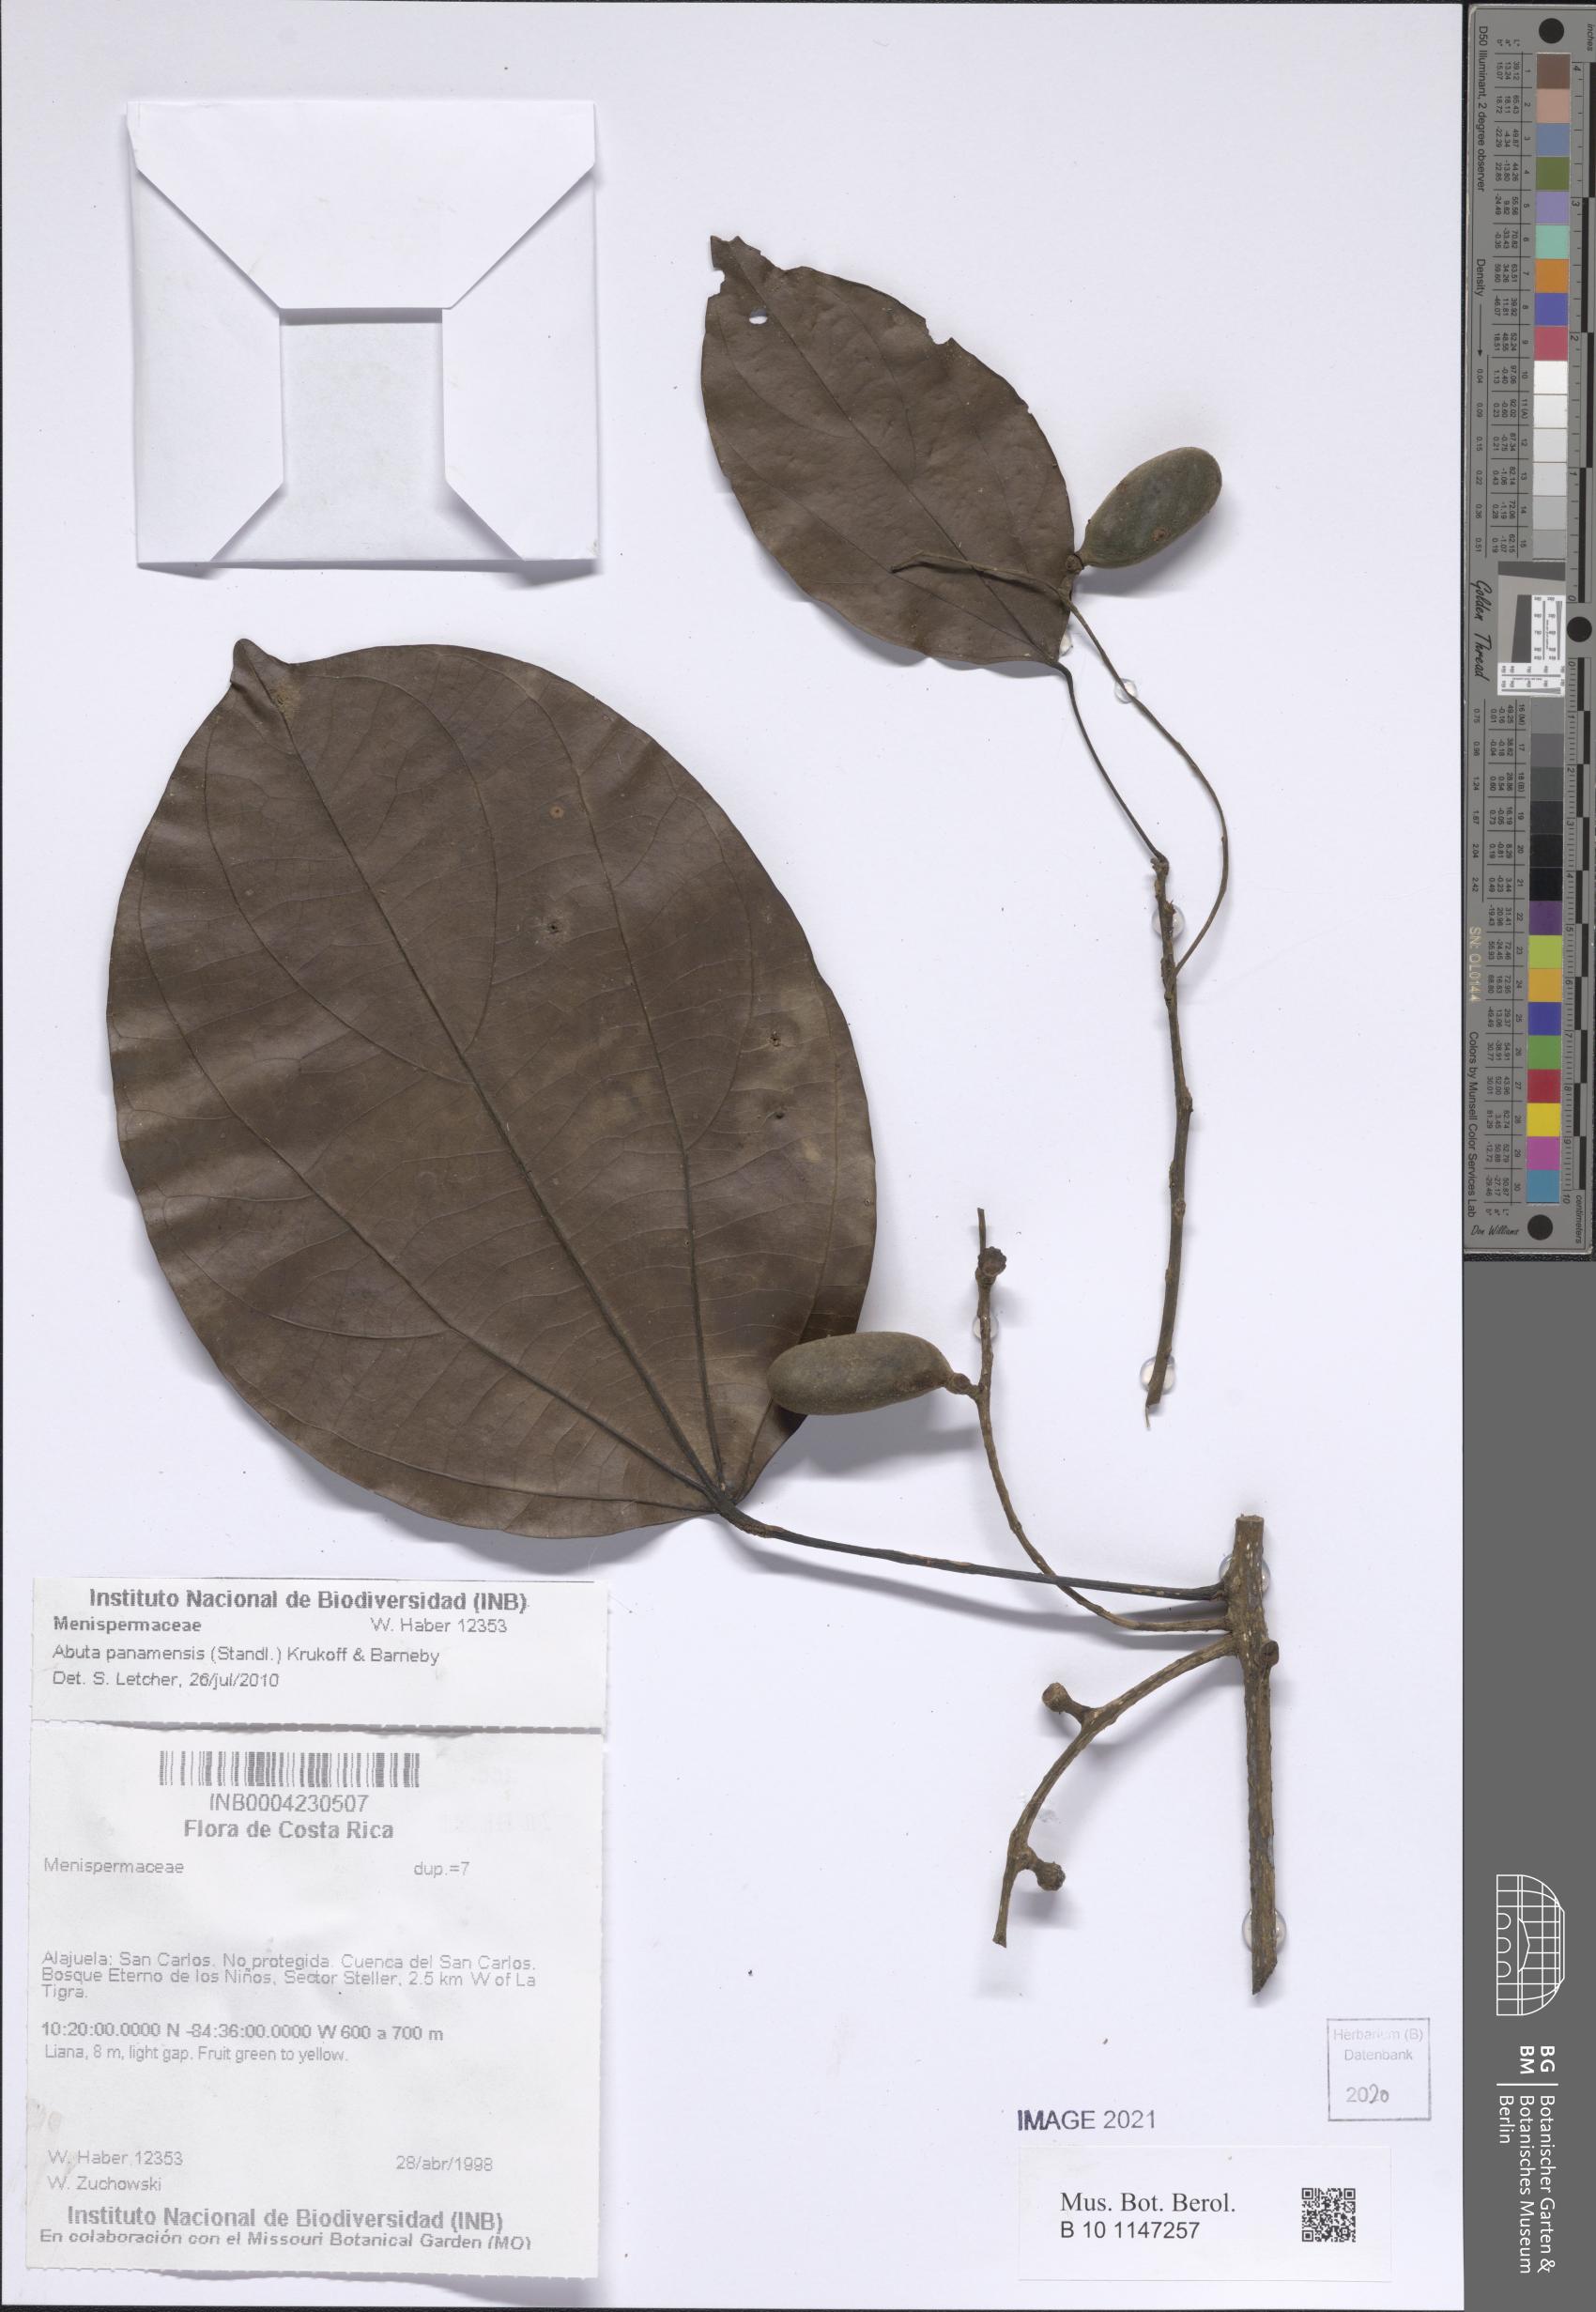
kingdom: Plantae
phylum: Tracheophyta
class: Magnoliopsida
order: Ranunculales
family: Menispermaceae
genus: Abuta
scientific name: Abuta panamensis
